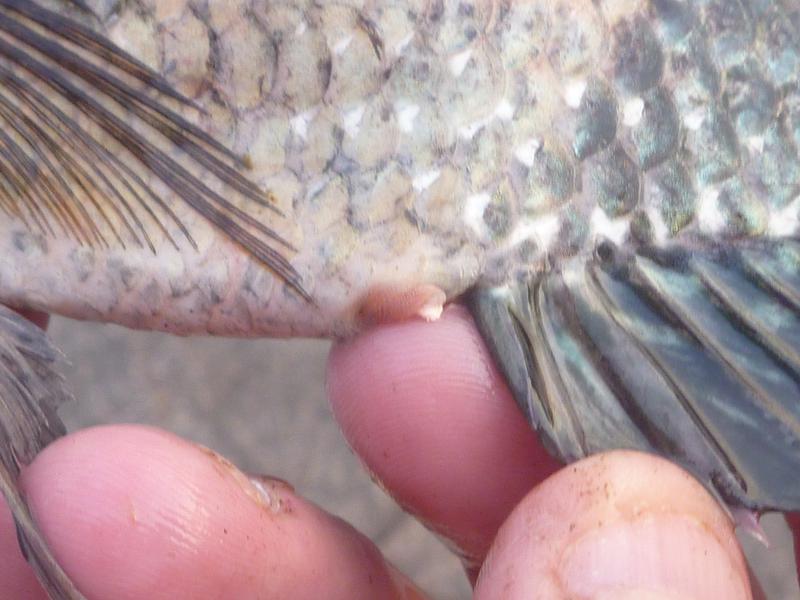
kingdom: Animalia
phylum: Chordata
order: Perciformes
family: Cichlidae
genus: Oreochromis
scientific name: Oreochromis leucostictus
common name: Blue spotted tilapia
